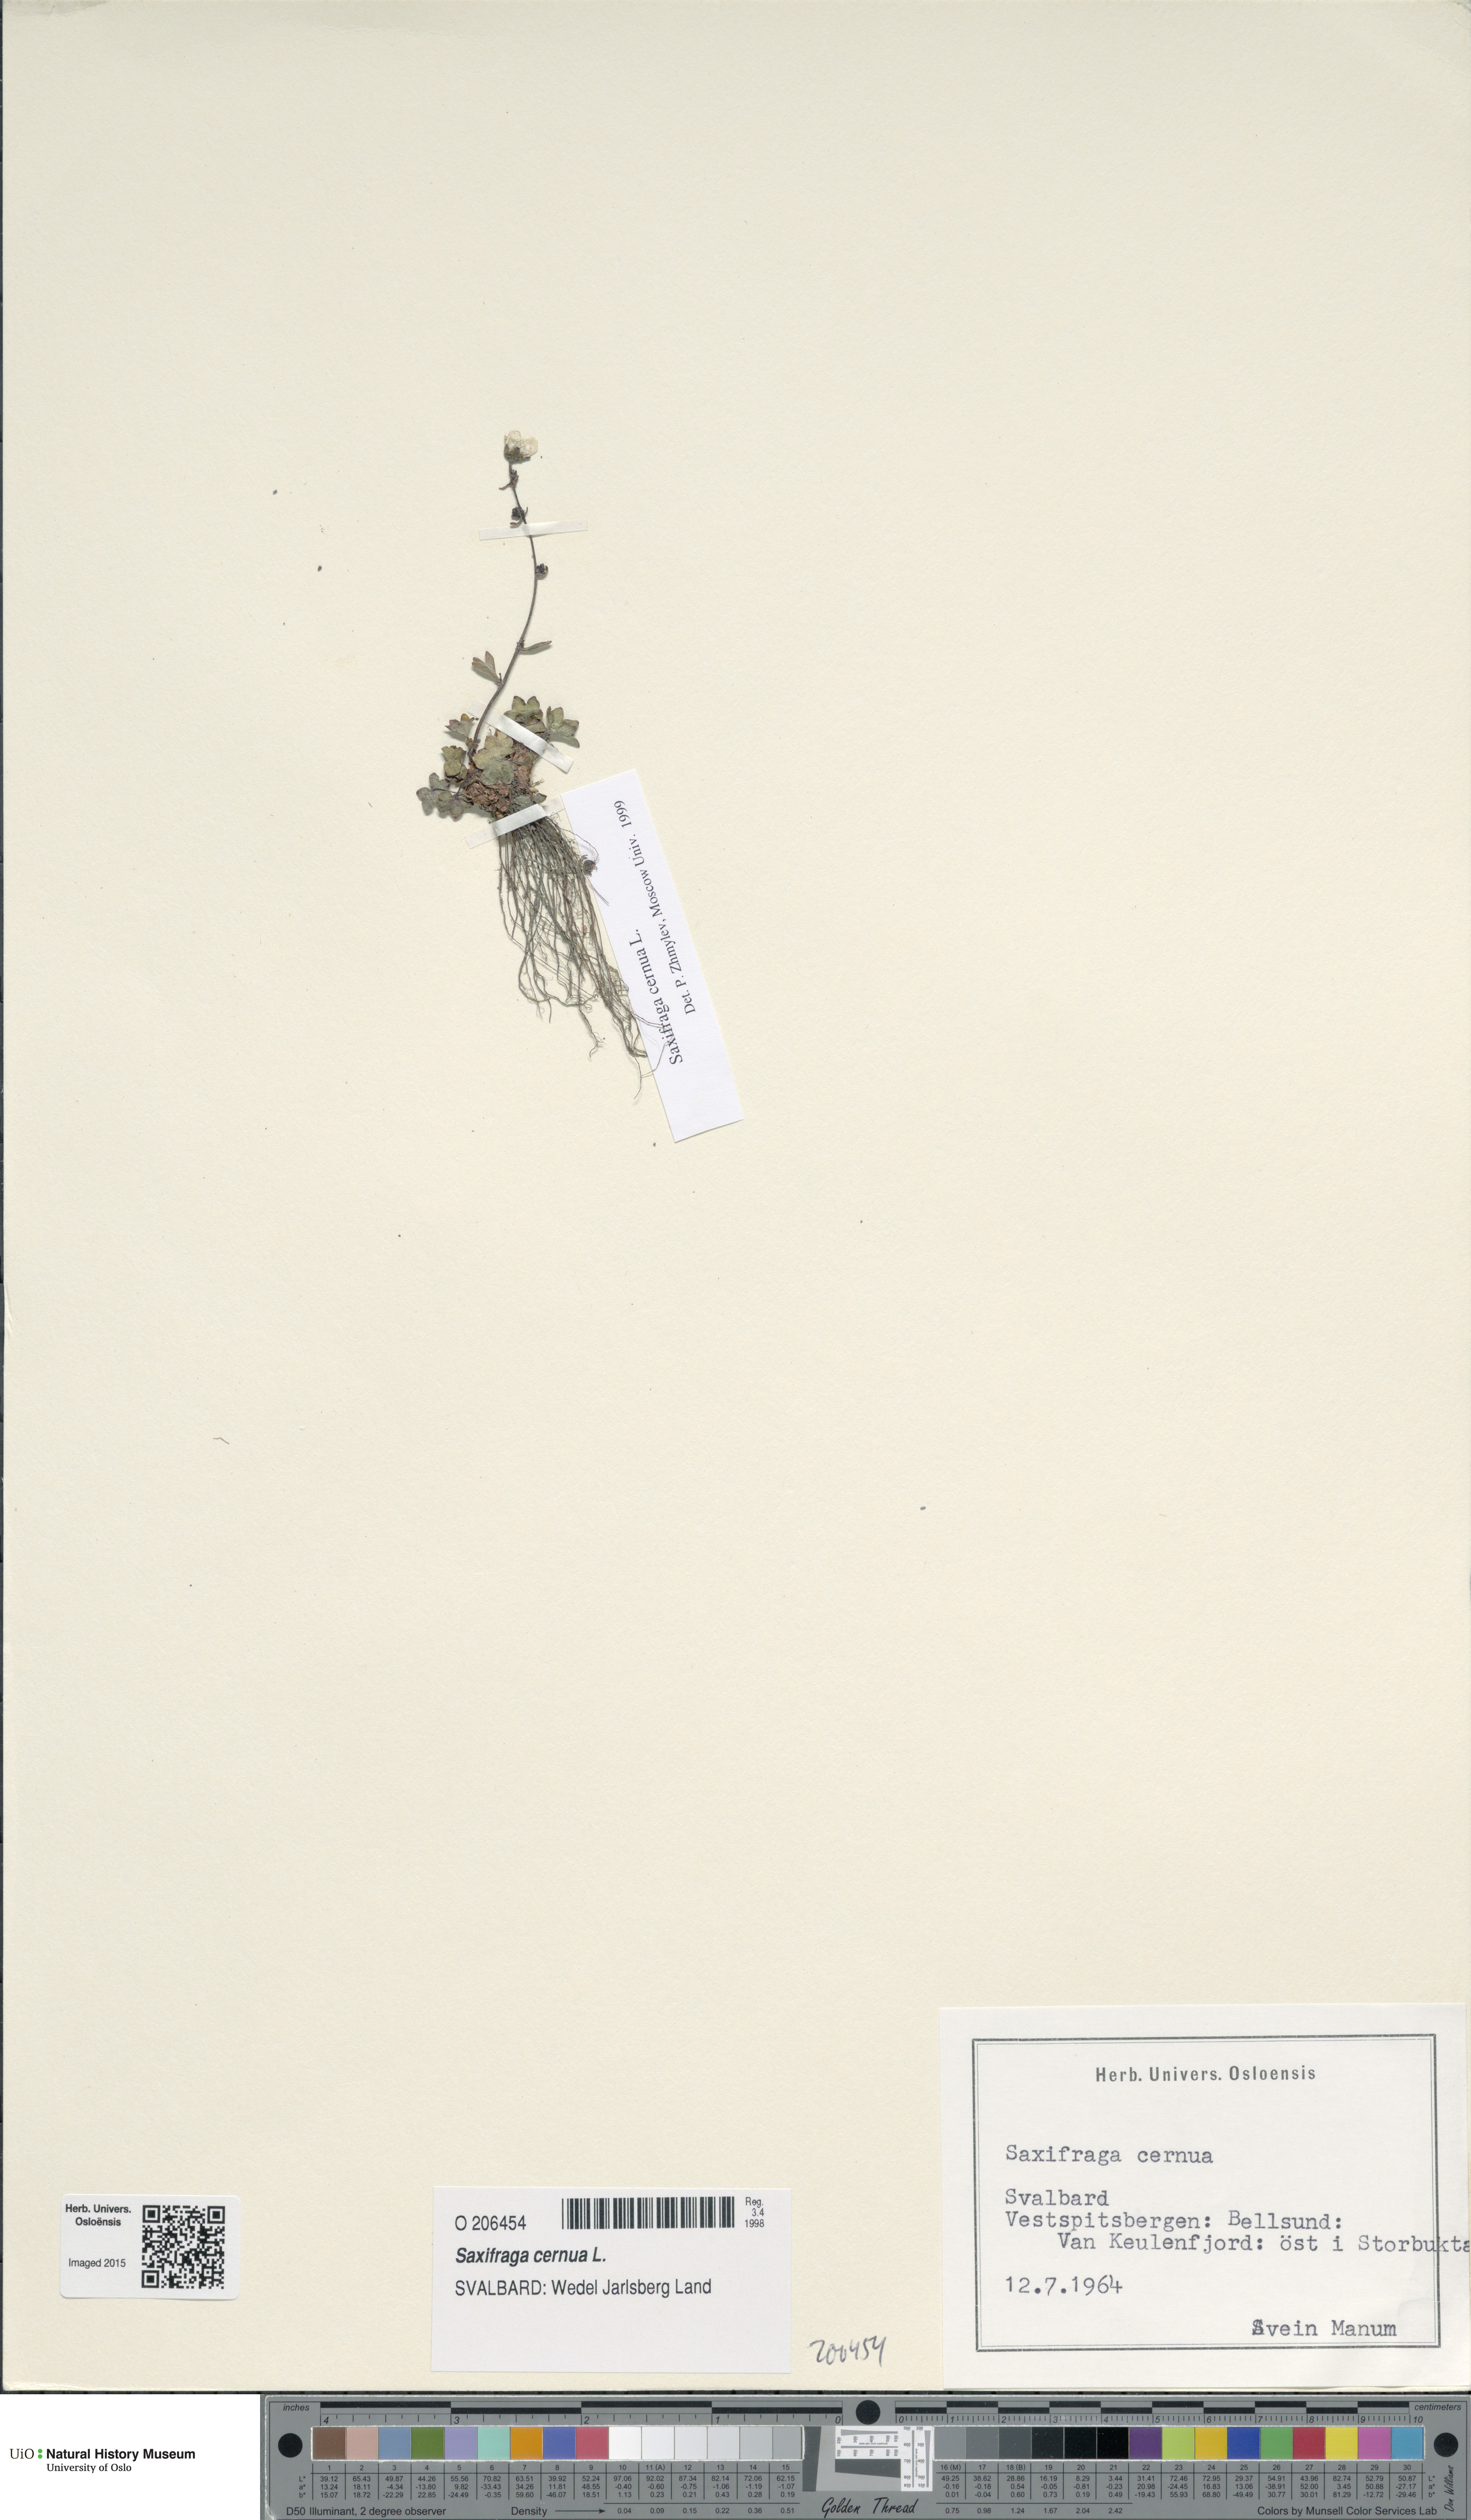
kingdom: Plantae
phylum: Tracheophyta
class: Magnoliopsida
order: Saxifragales
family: Saxifragaceae
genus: Saxifraga
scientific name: Saxifraga cernua
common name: Drooping saxifrage
